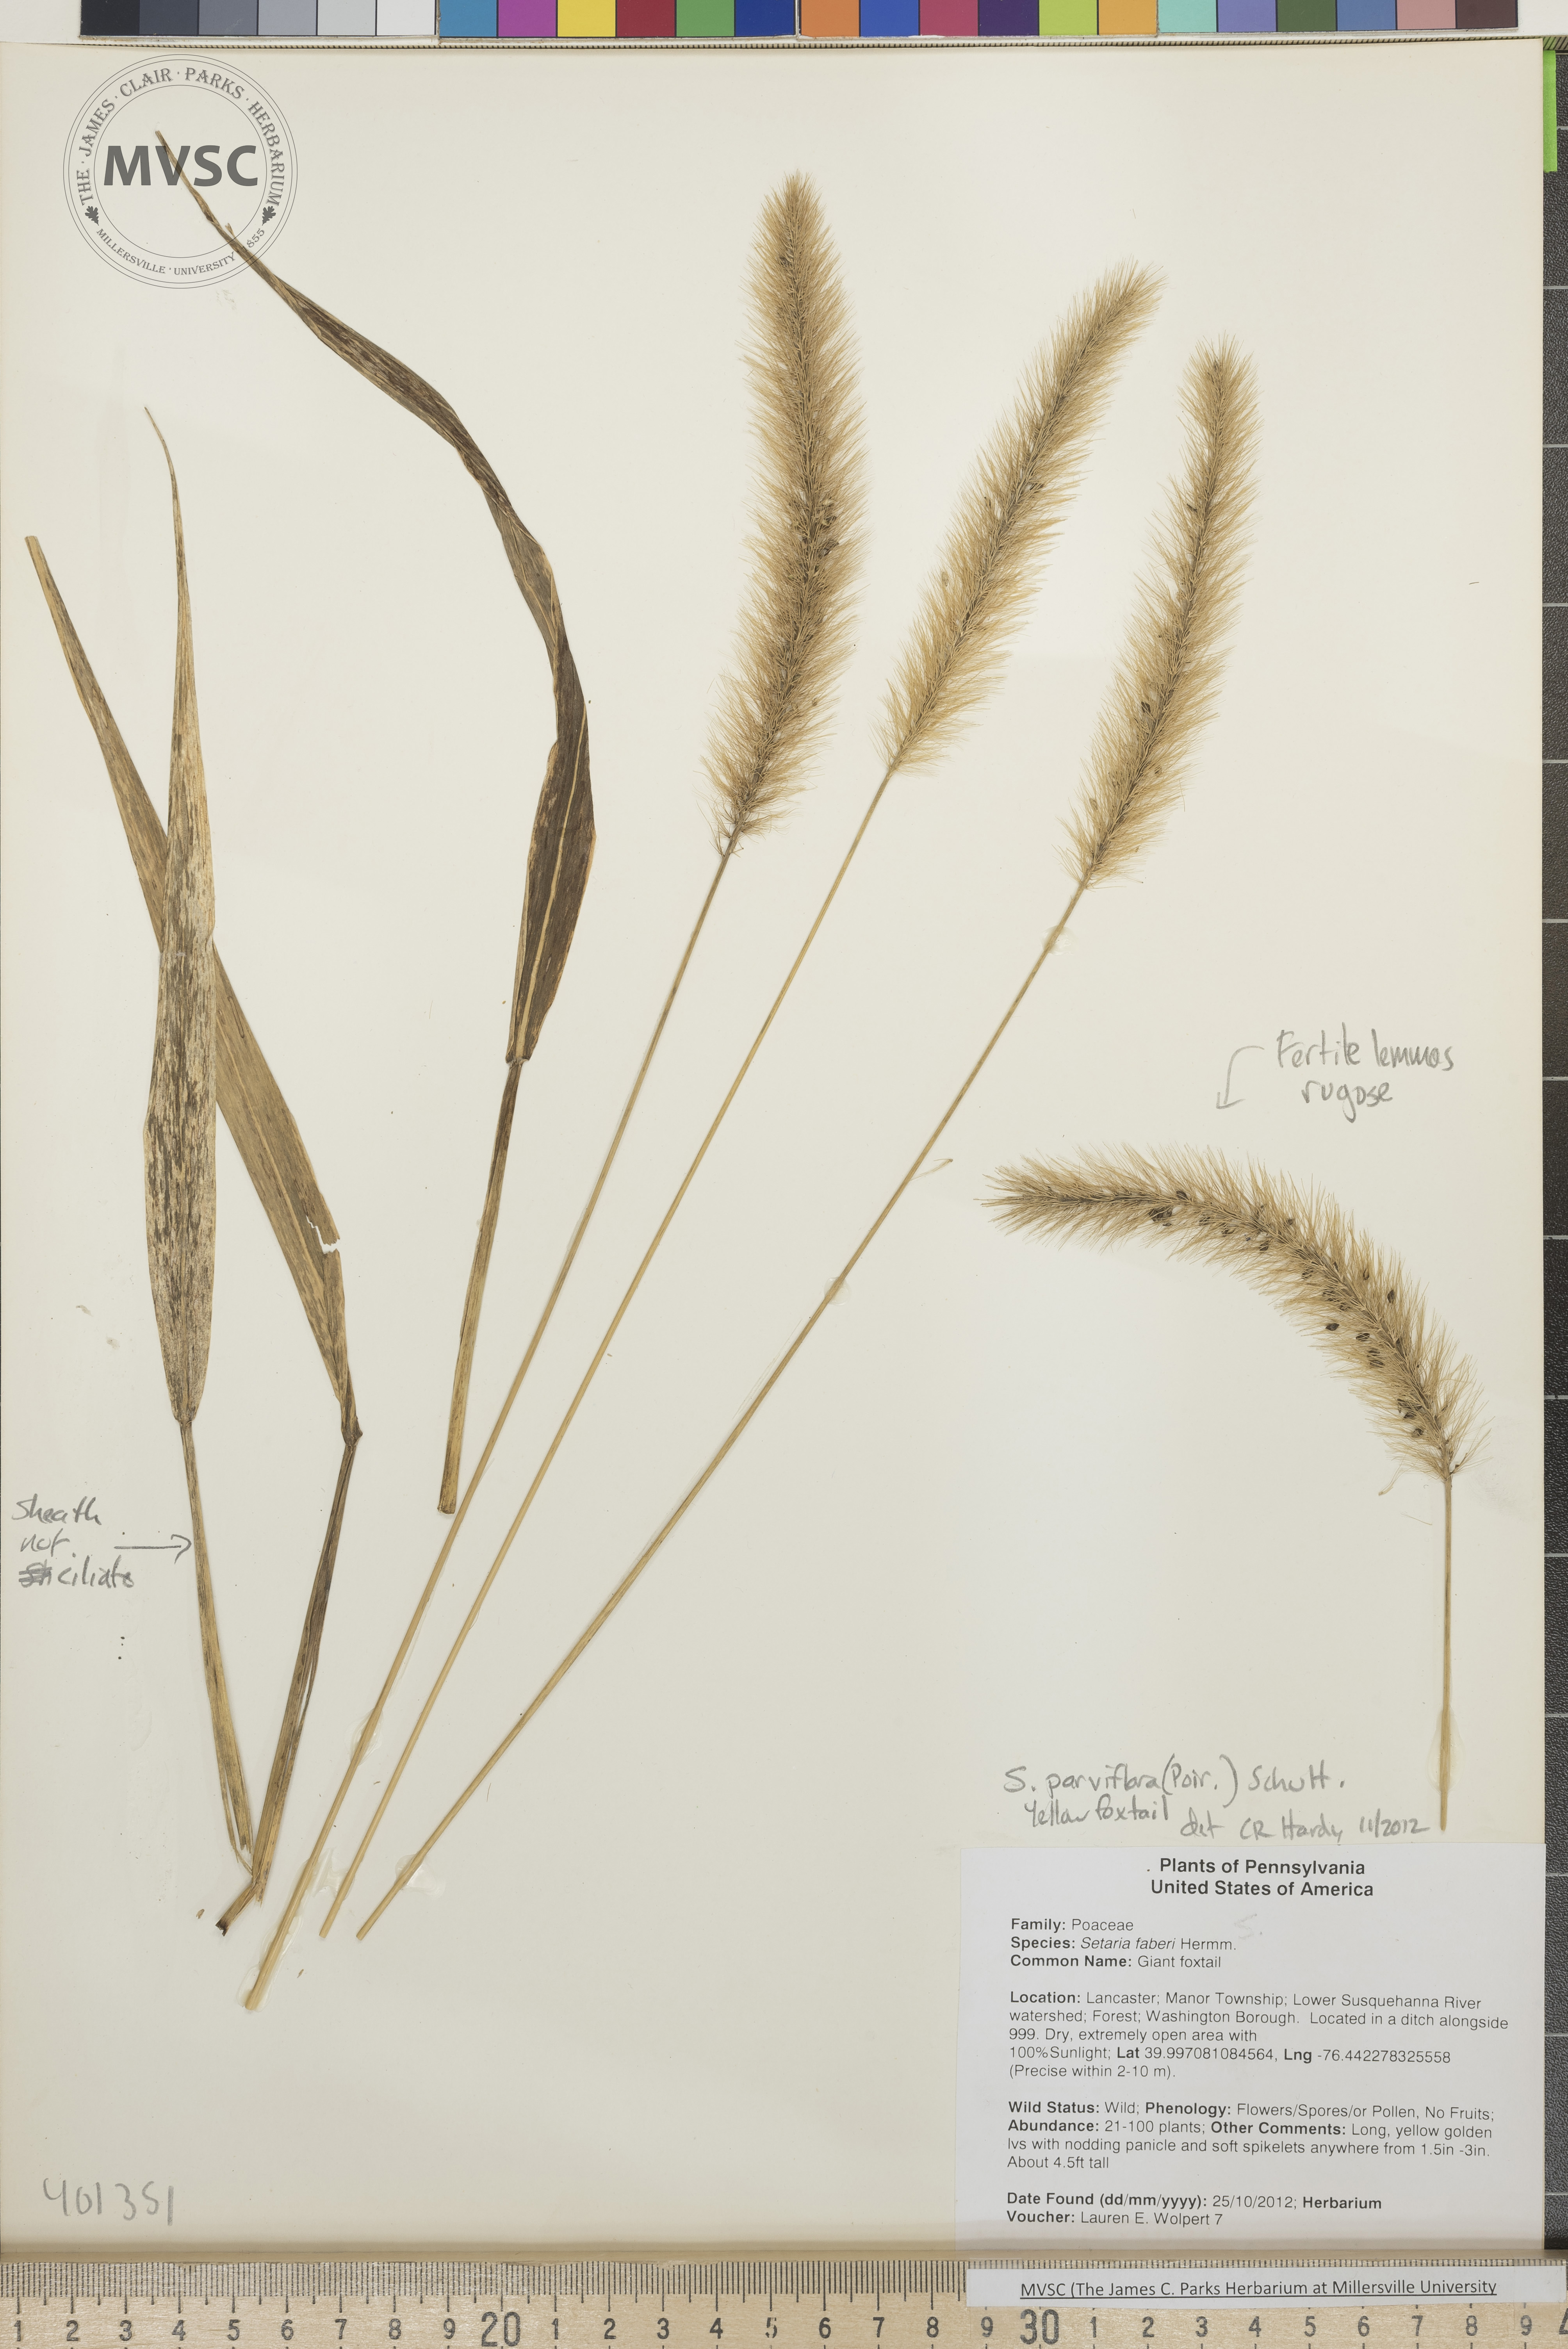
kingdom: Plantae
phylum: Tracheophyta
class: Liliopsida
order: Poales
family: Poaceae
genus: Setaria
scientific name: Setaria parviflora
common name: Yellow Foxtail
